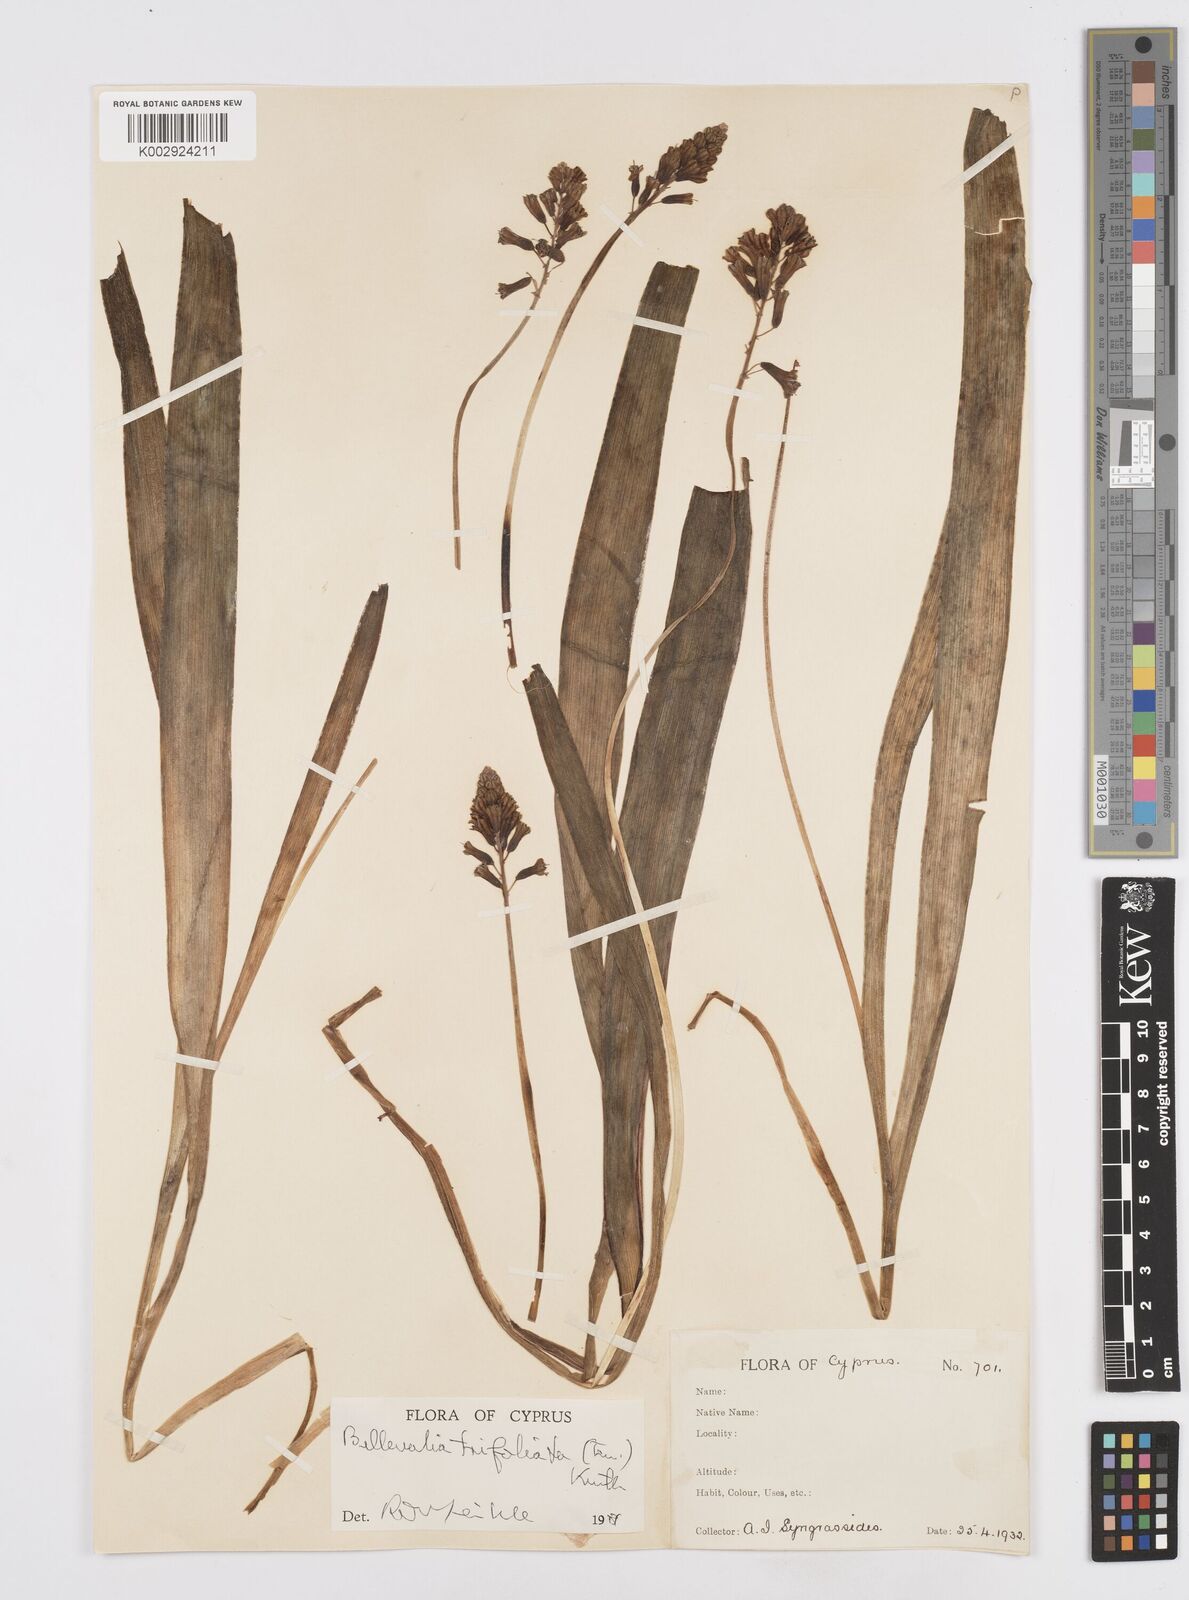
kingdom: Plantae
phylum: Tracheophyta
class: Liliopsida
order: Asparagales
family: Asparagaceae
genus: Bellevalia
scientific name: Bellevalia trifoliata
